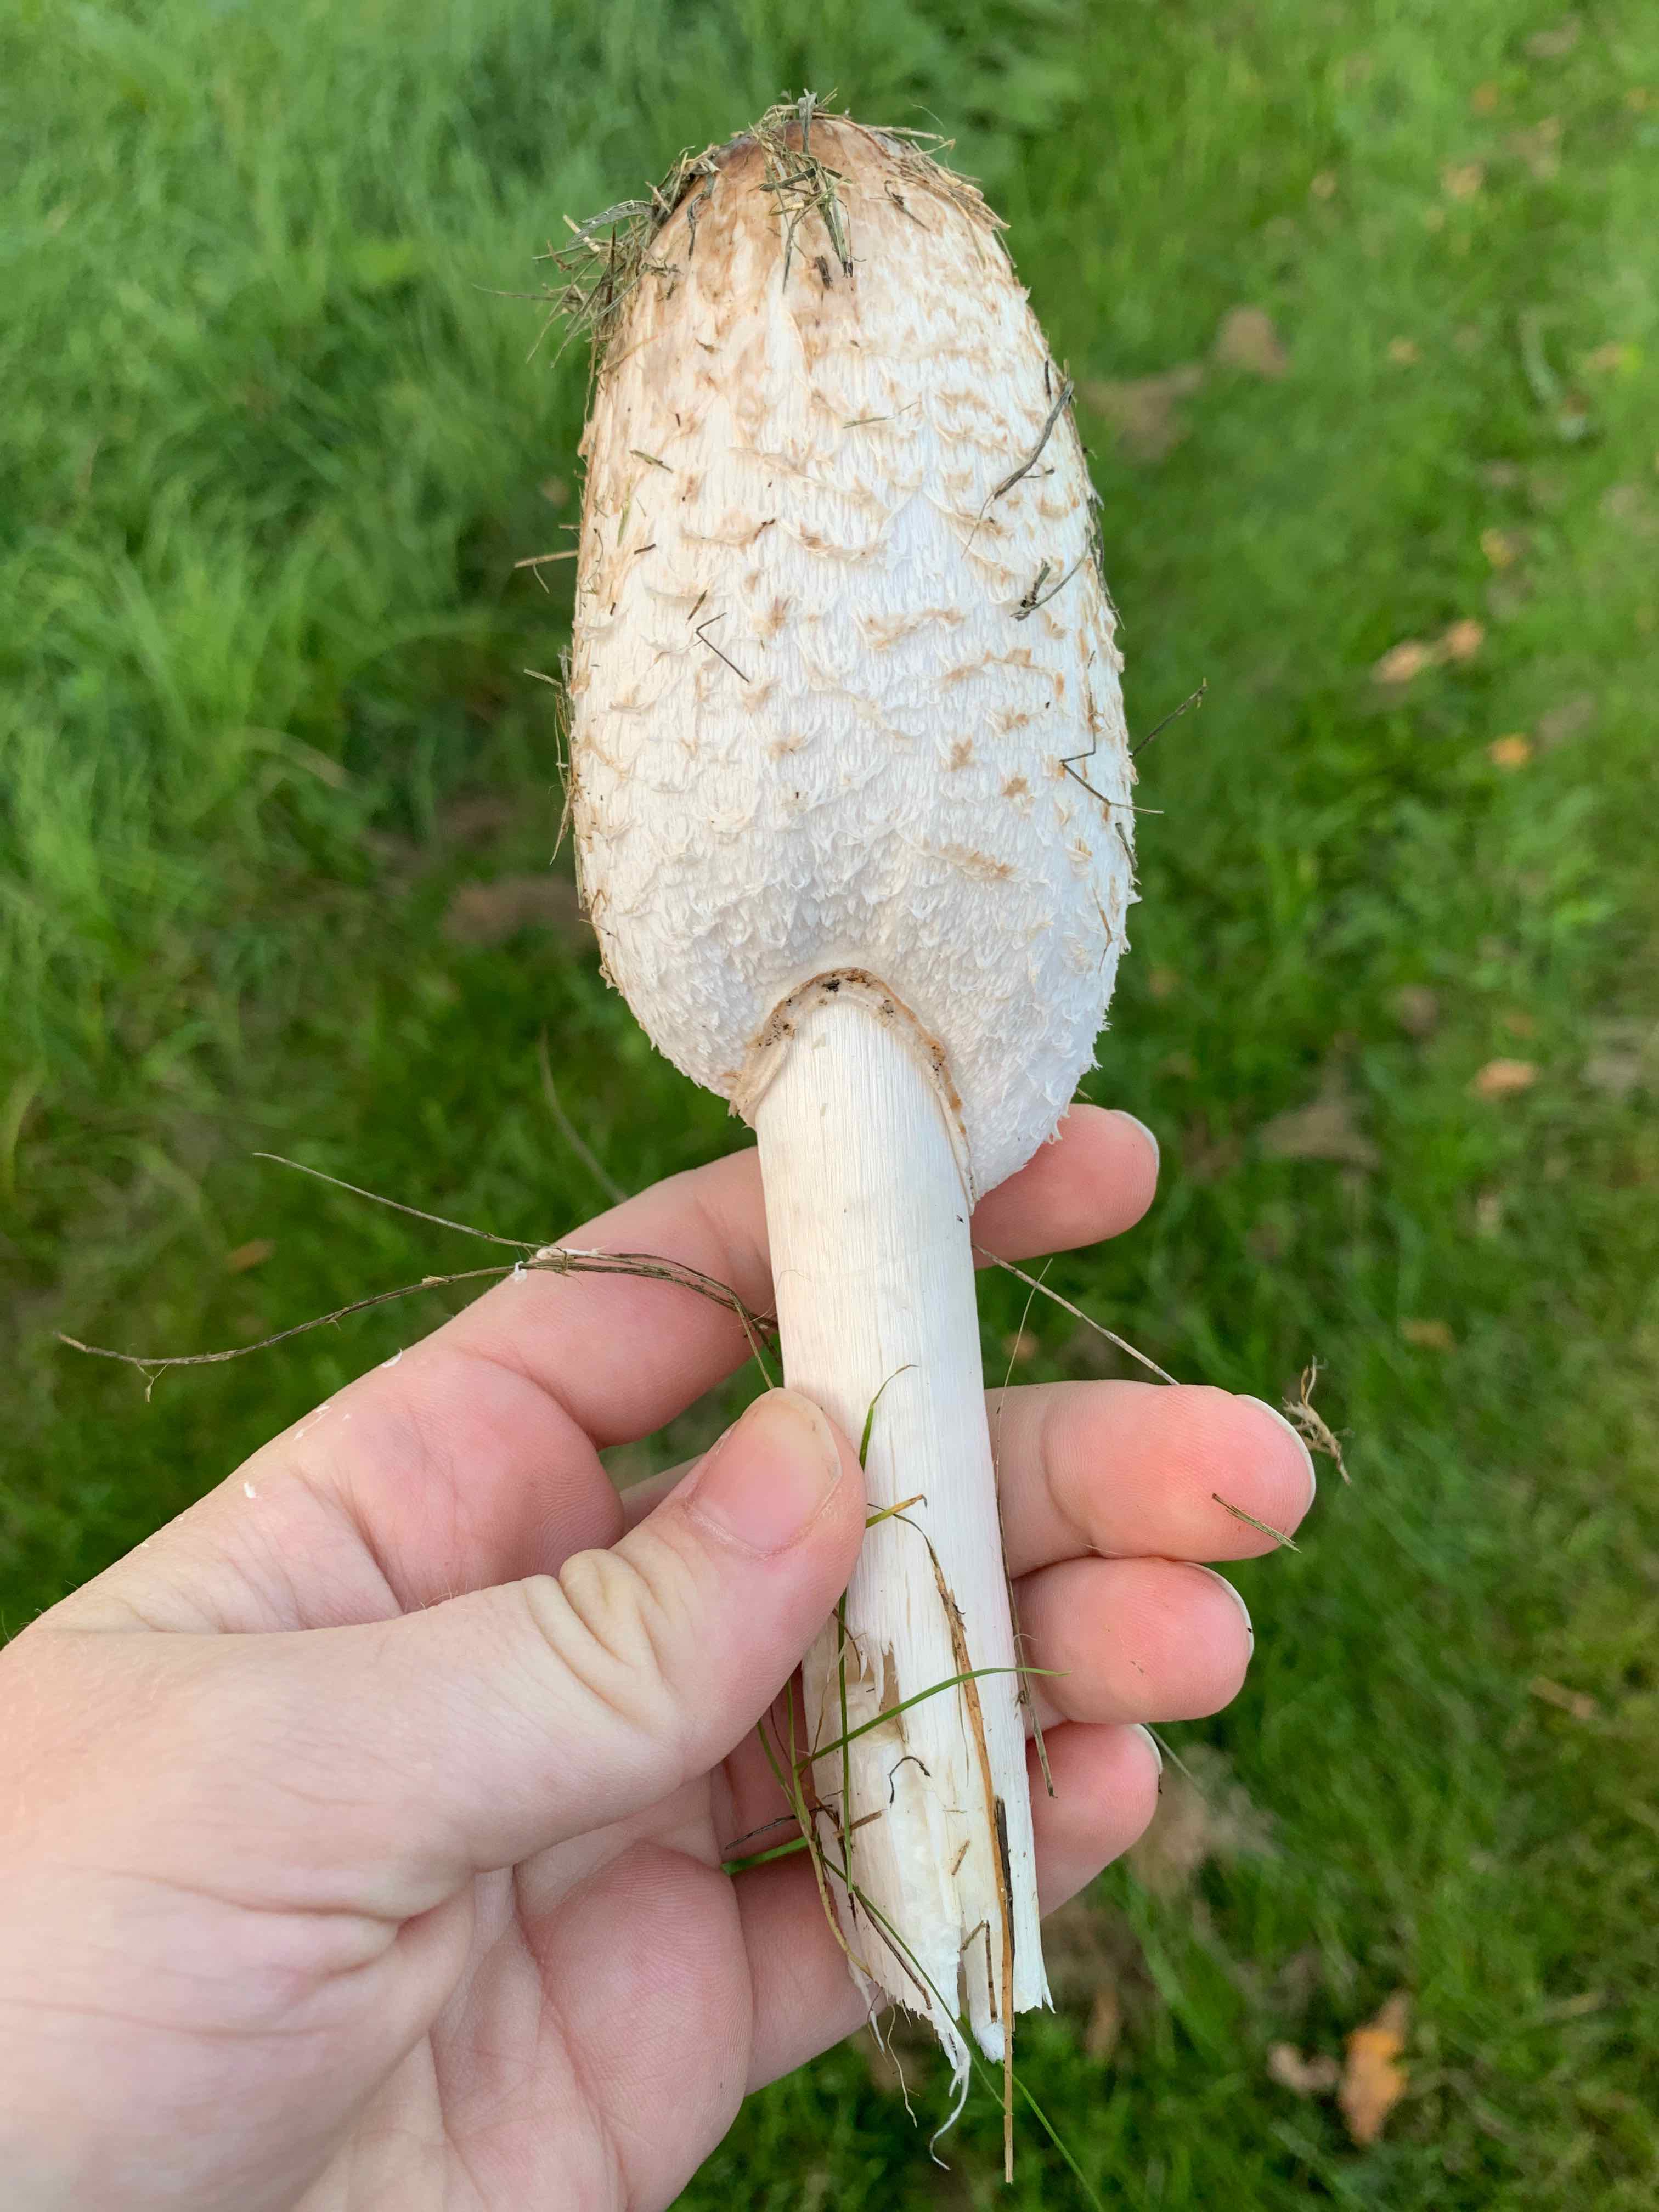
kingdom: Fungi
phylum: Basidiomycota
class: Agaricomycetes
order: Agaricales
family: Agaricaceae
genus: Coprinus
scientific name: Coprinus comatus
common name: stor parykhat
